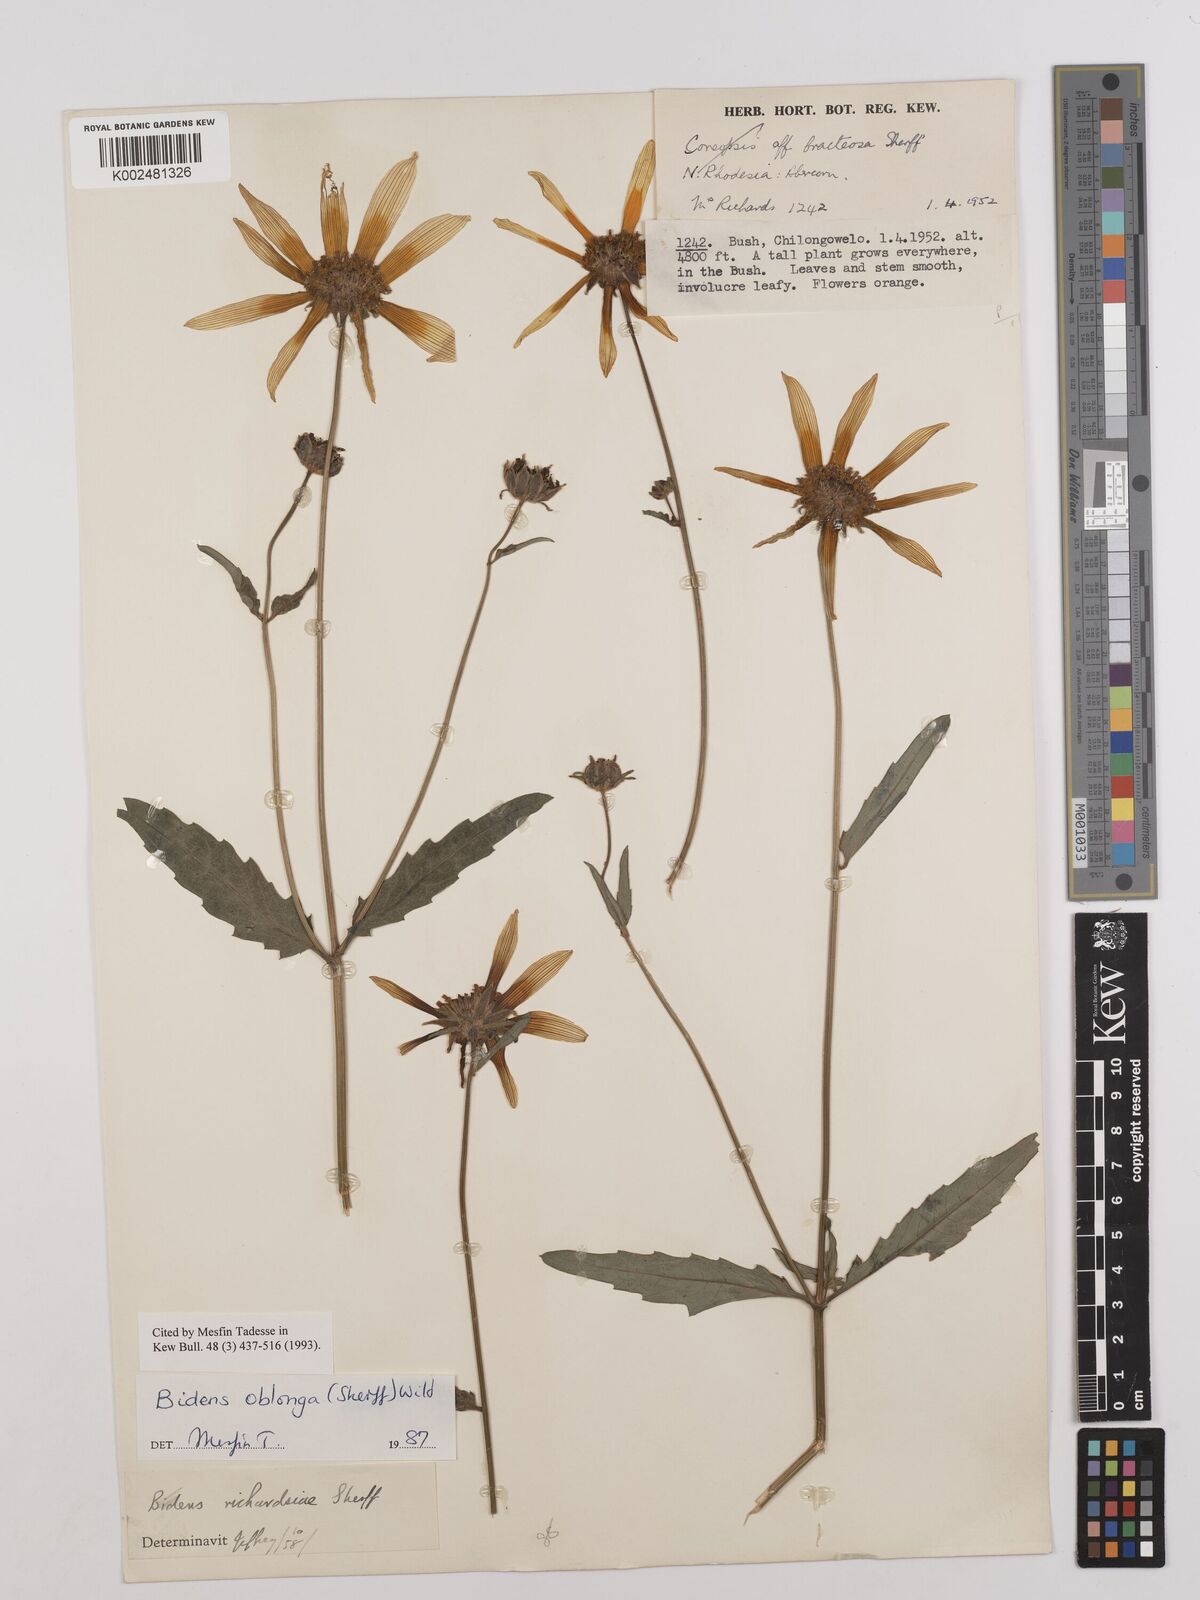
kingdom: Plantae
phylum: Tracheophyta
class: Magnoliopsida
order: Asterales
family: Asteraceae
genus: Bidens
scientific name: Bidens oblonga
